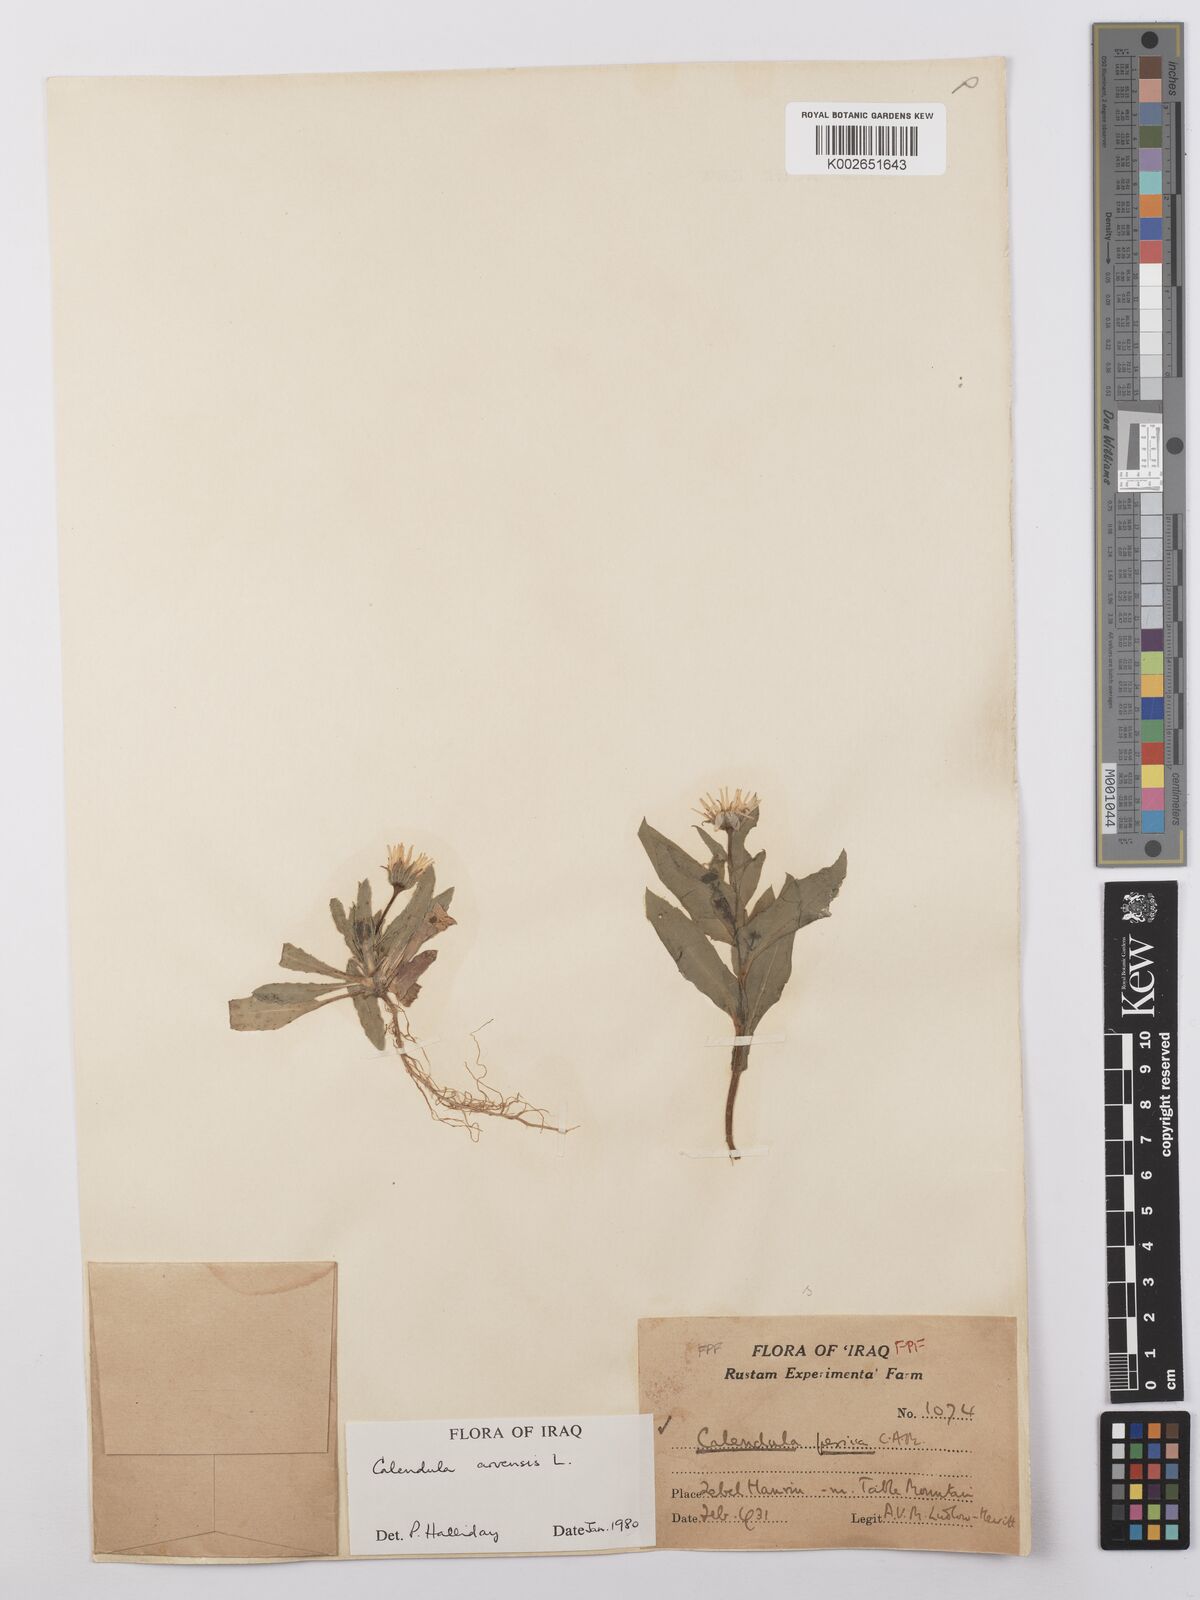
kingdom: Plantae
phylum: Tracheophyta
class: Magnoliopsida
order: Asterales
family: Asteraceae
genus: Calendula
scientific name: Calendula arvensis
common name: Field marigold
